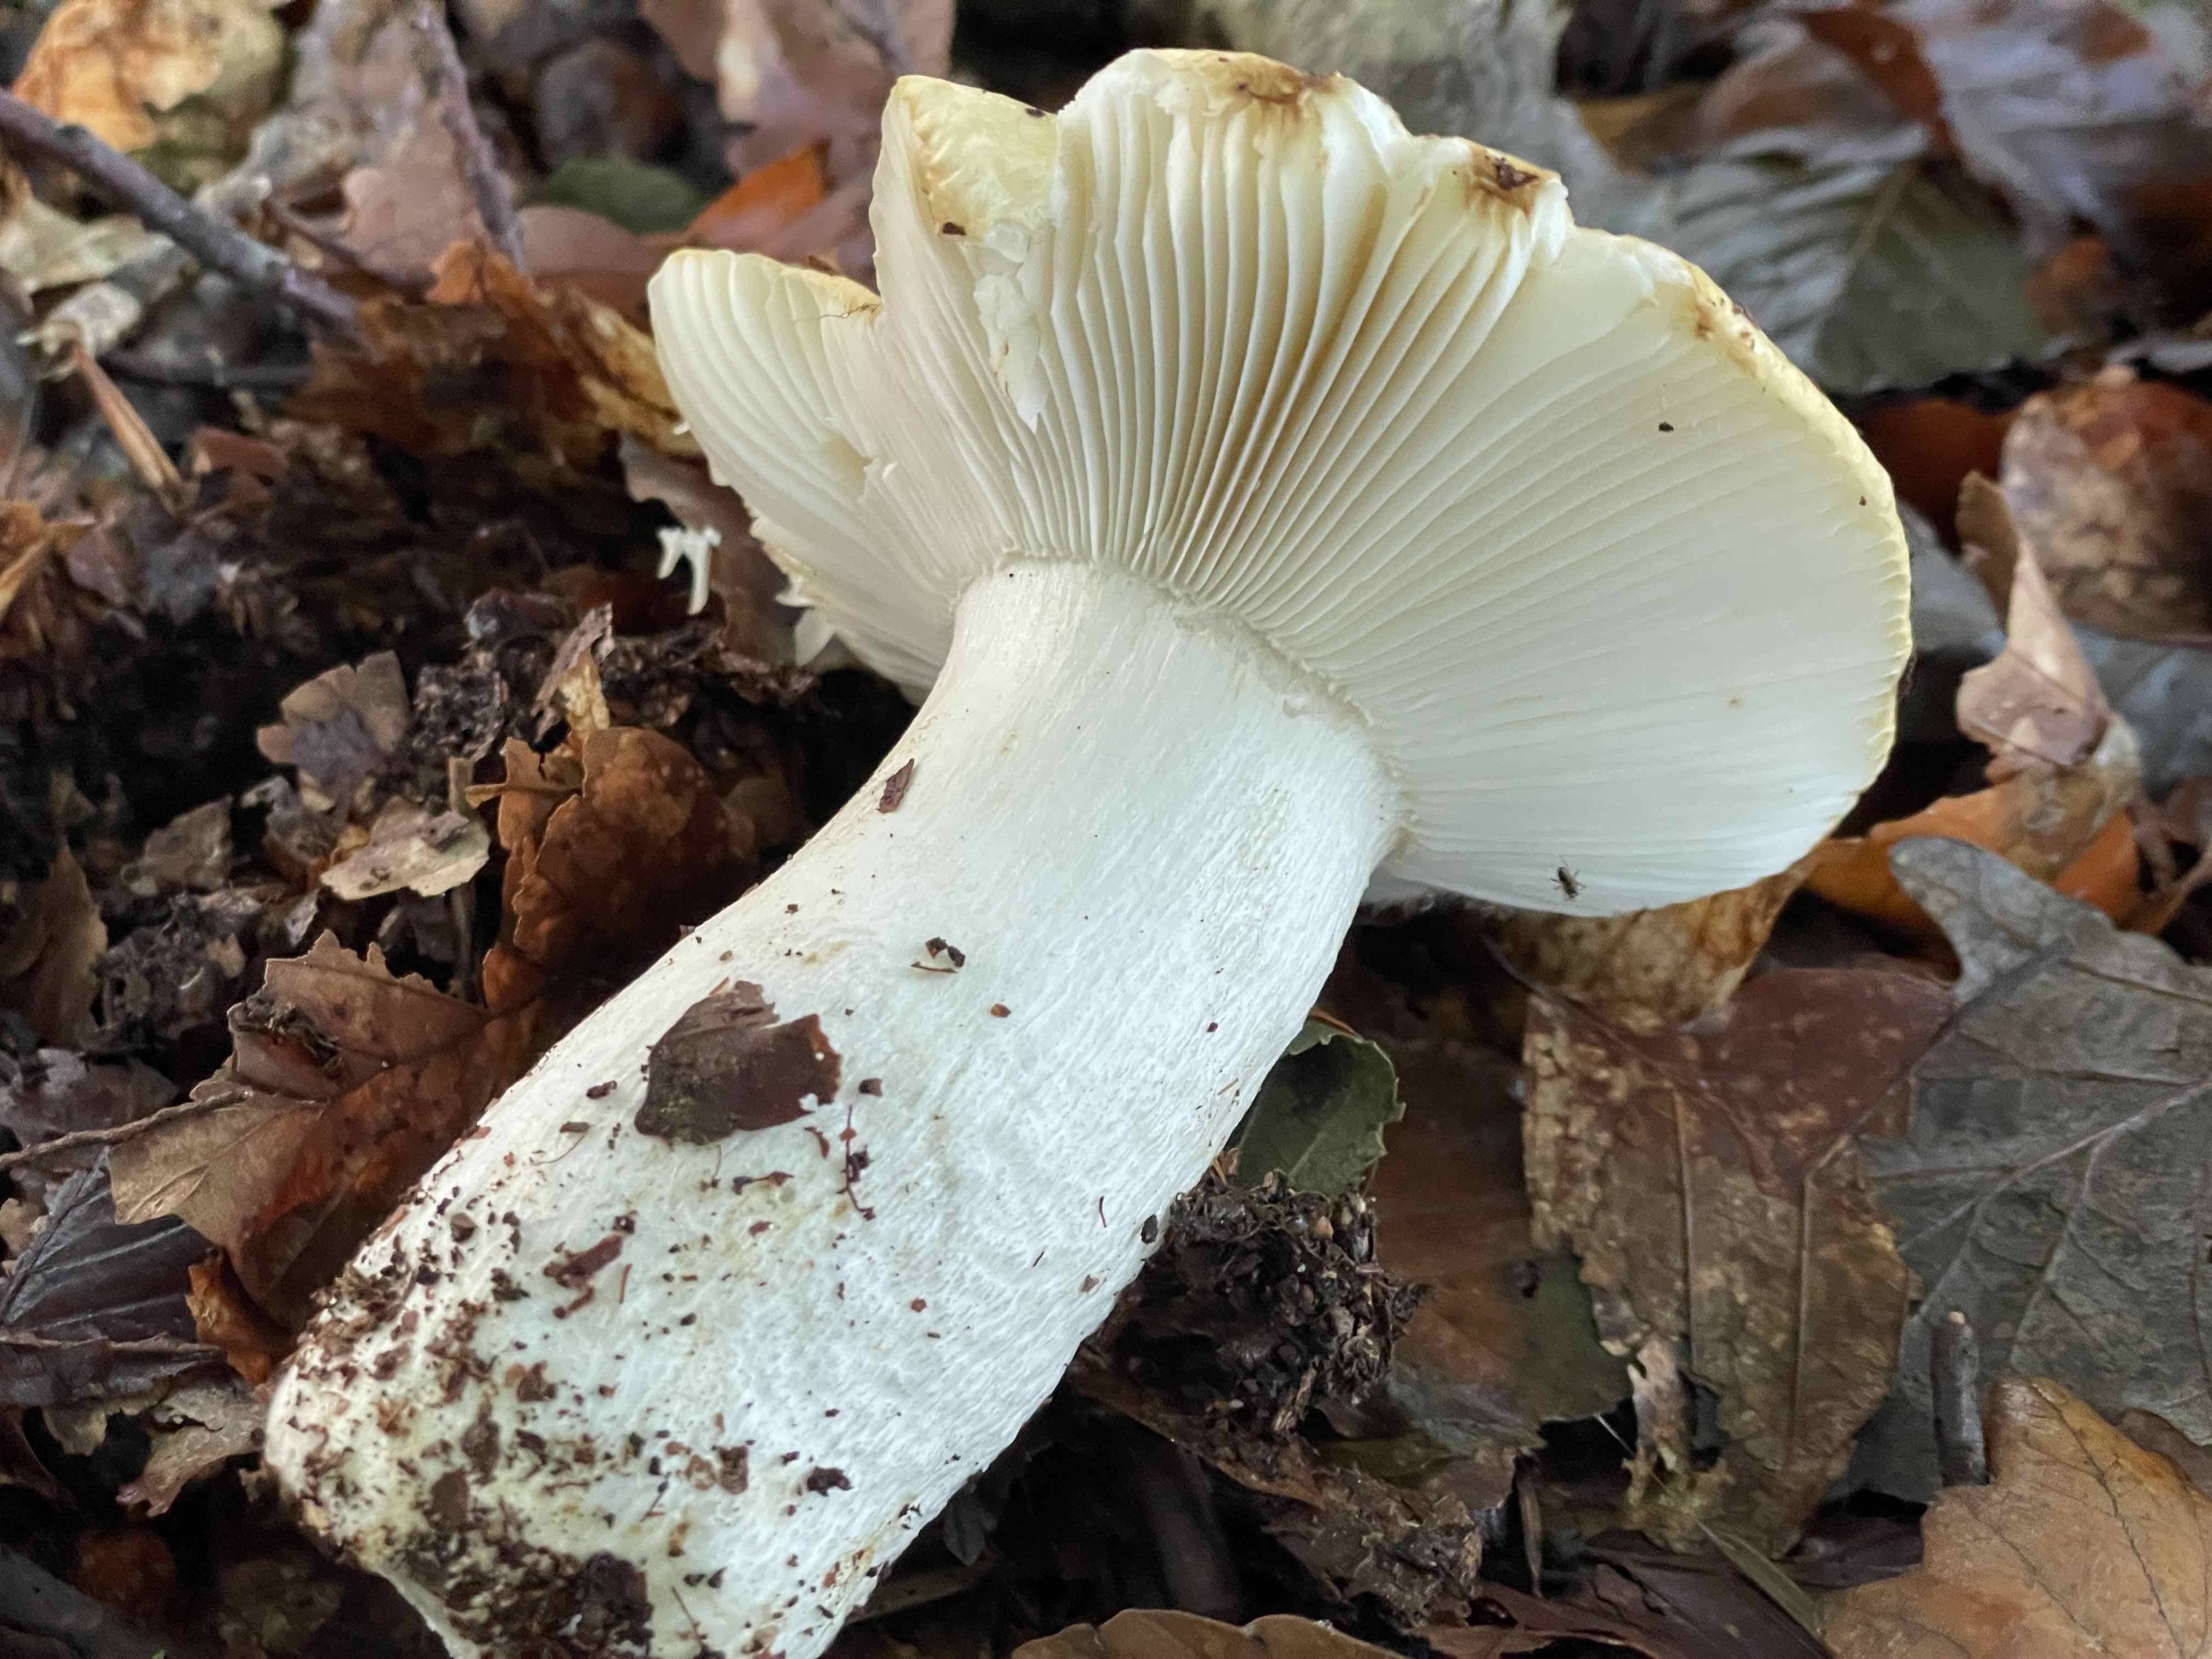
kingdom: Fungi
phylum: Basidiomycota
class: Agaricomycetes
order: Russulales
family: Russulaceae
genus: Russula
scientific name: Russula ochroleuca
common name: okkergul skørhat
